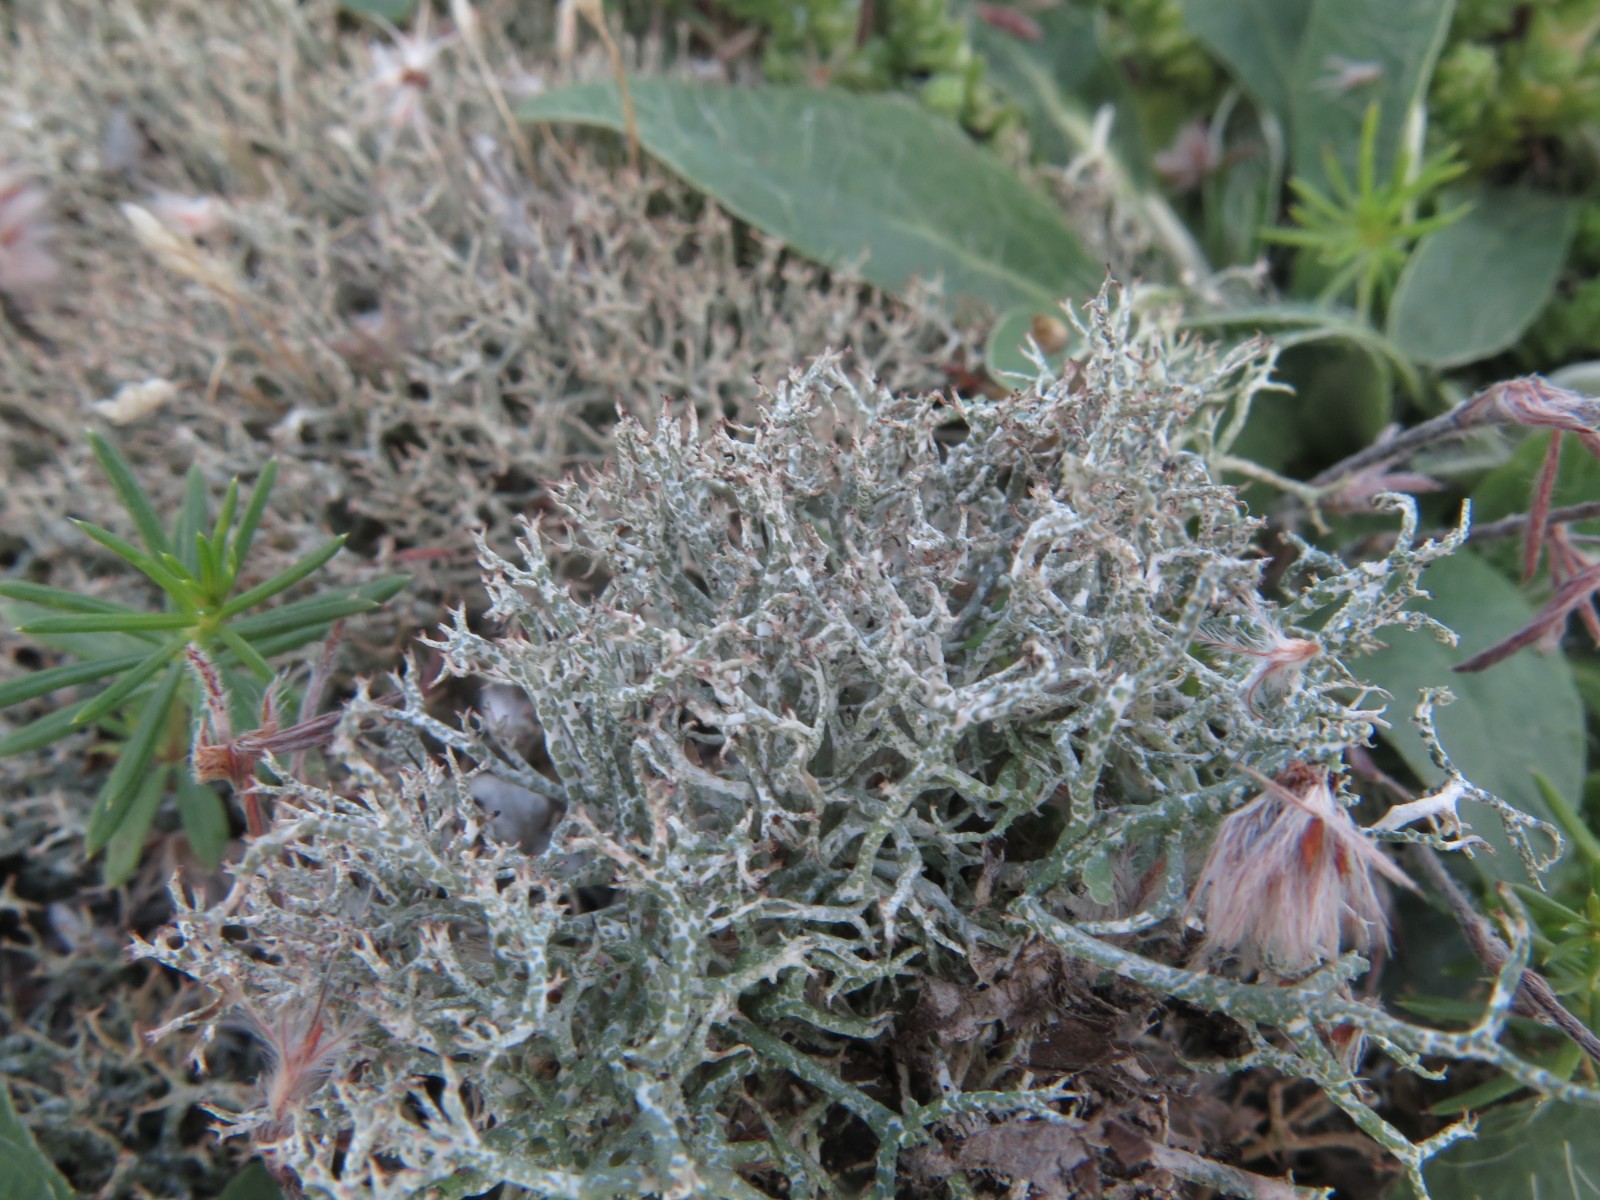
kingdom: Fungi
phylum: Ascomycota
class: Lecanoromycetes
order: Lecanorales
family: Cladoniaceae
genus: Cladonia
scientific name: Cladonia portentosa
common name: hede-rensdyrlav
